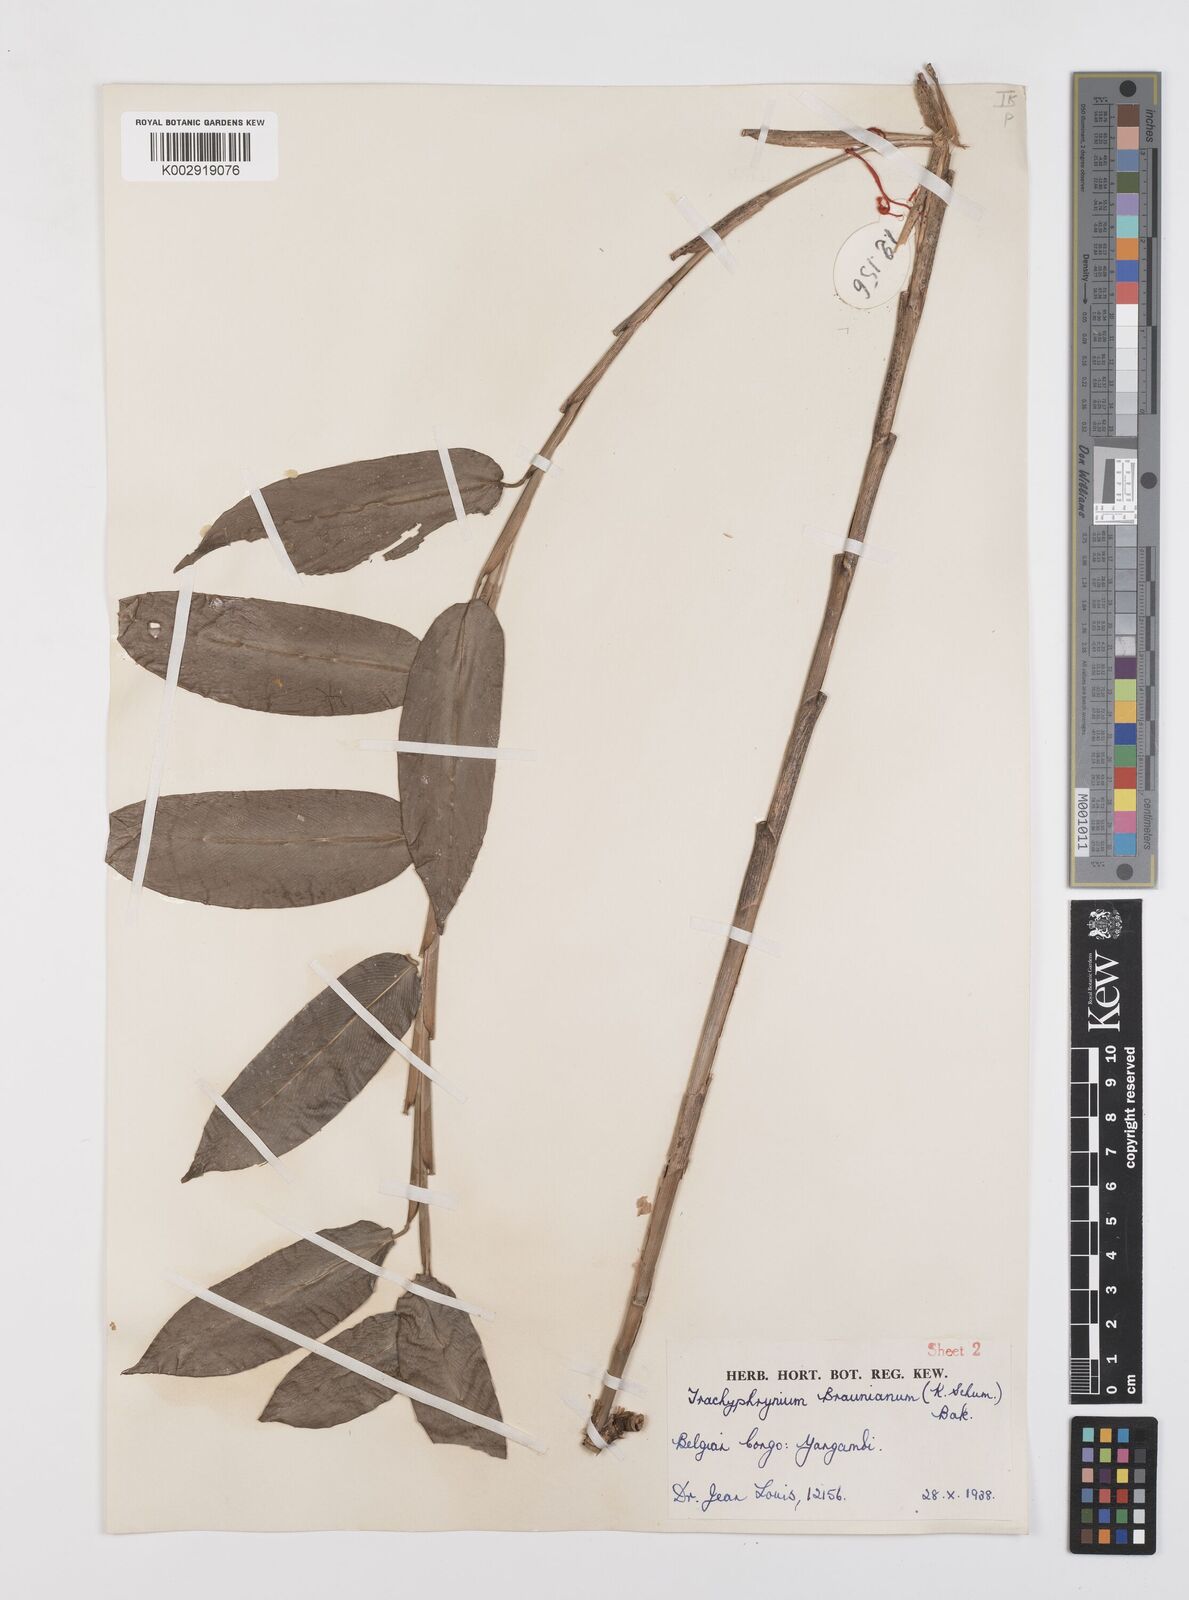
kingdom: Plantae
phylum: Tracheophyta
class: Liliopsida
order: Zingiberales
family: Marantaceae
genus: Trachyphrynium
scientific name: Trachyphrynium braunianum
